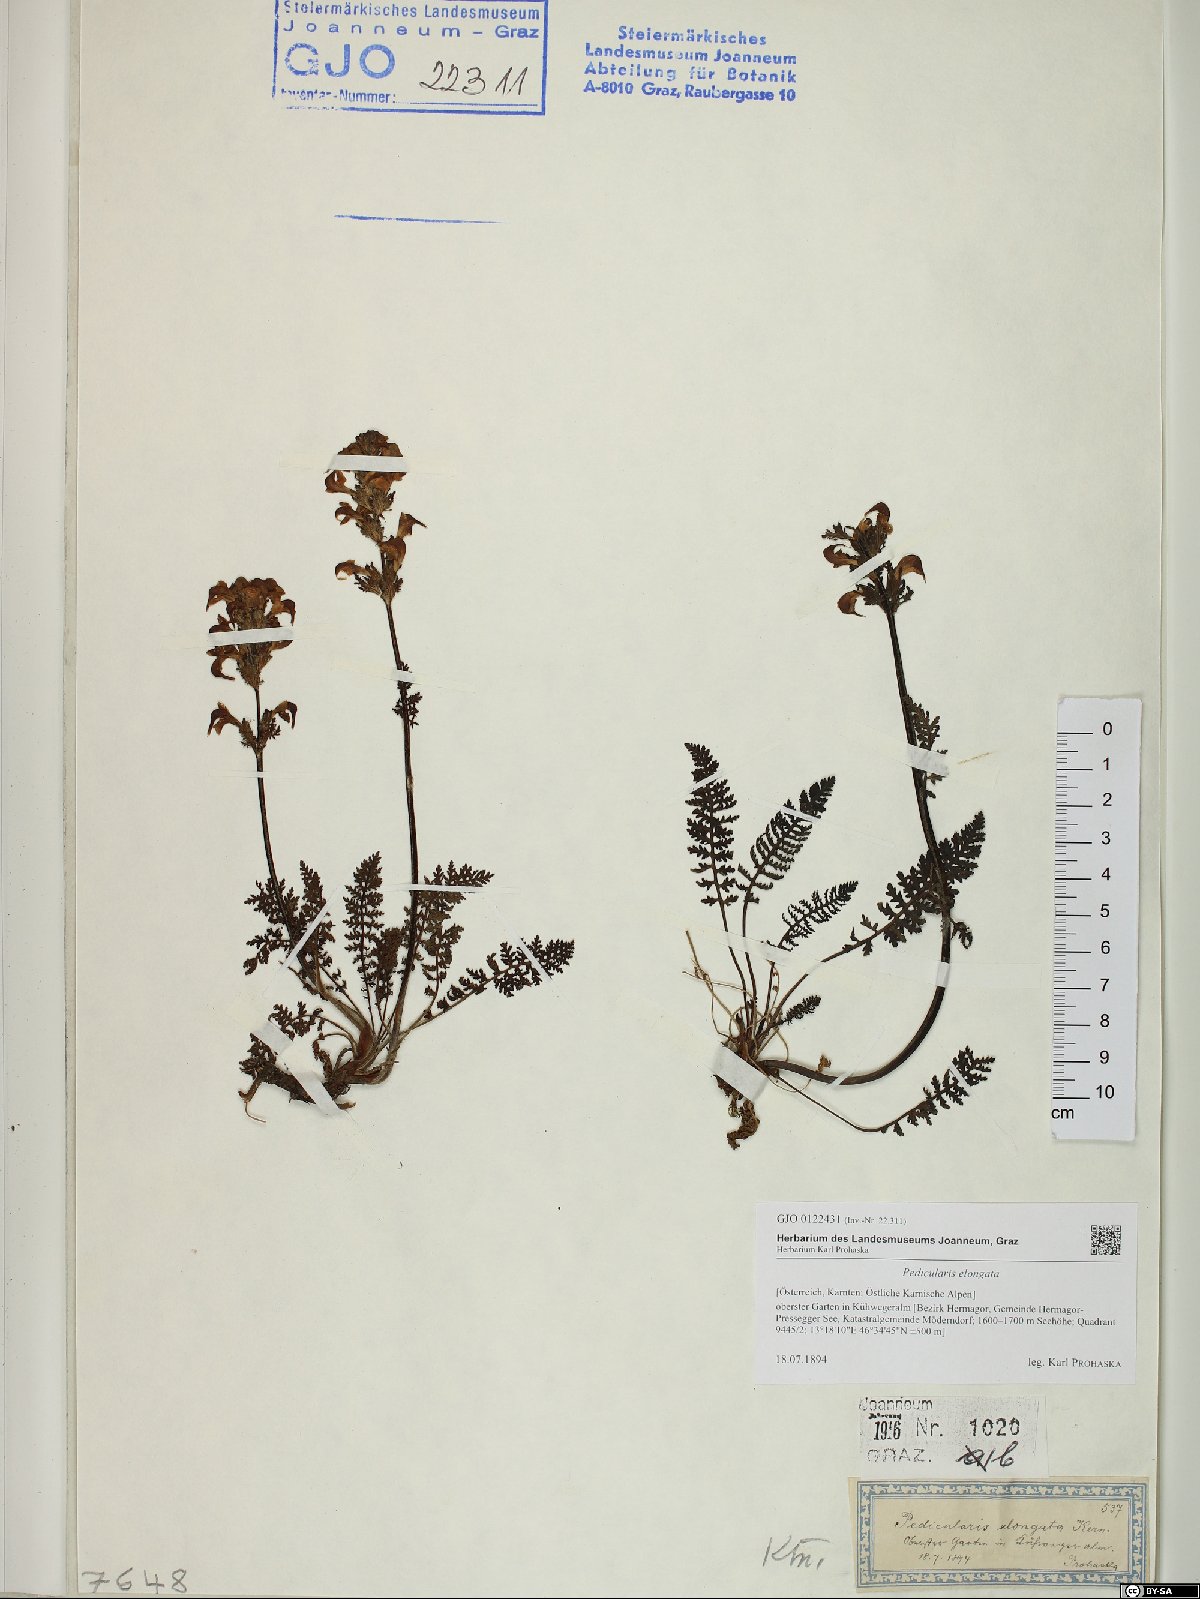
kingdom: Plantae
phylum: Tracheophyta
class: Magnoliopsida
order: Lamiales
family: Orobanchaceae
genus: Pedicularis
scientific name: Pedicularis elongata
